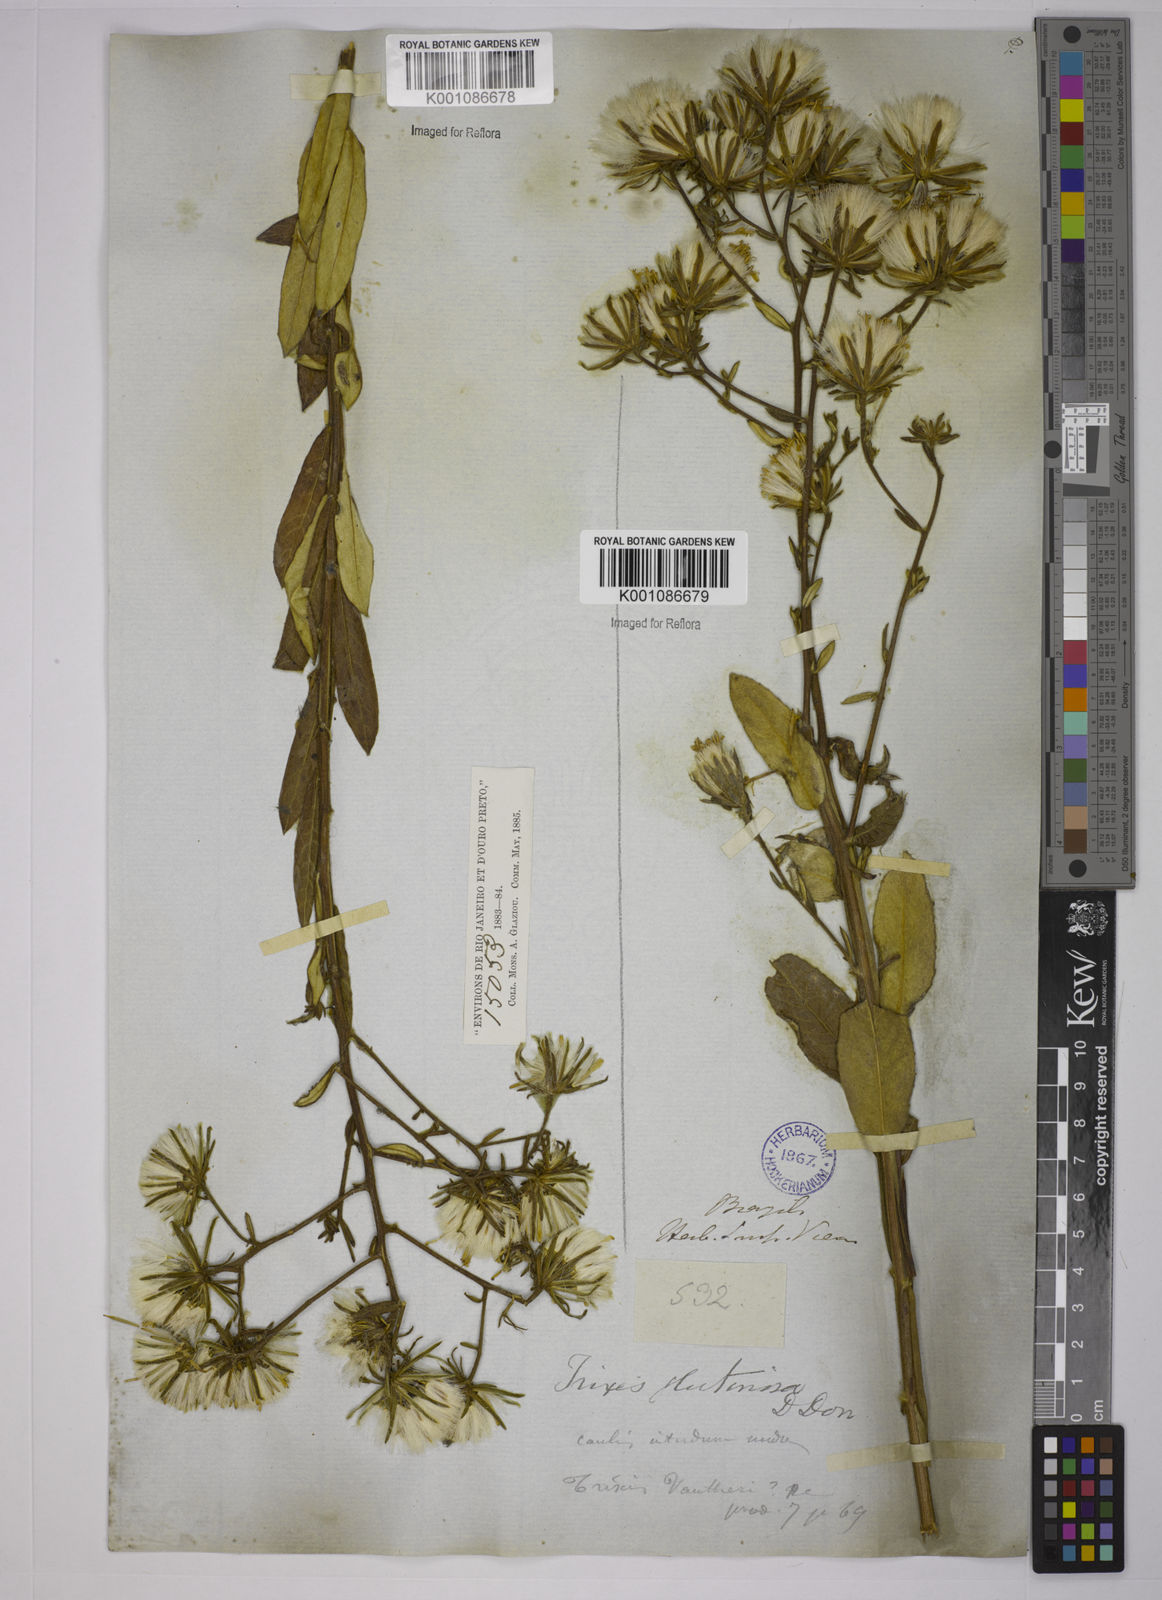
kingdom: Plantae
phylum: Tracheophyta
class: Magnoliopsida
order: Asterales
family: Asteraceae
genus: Trixis
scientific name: Trixis glutinosa
